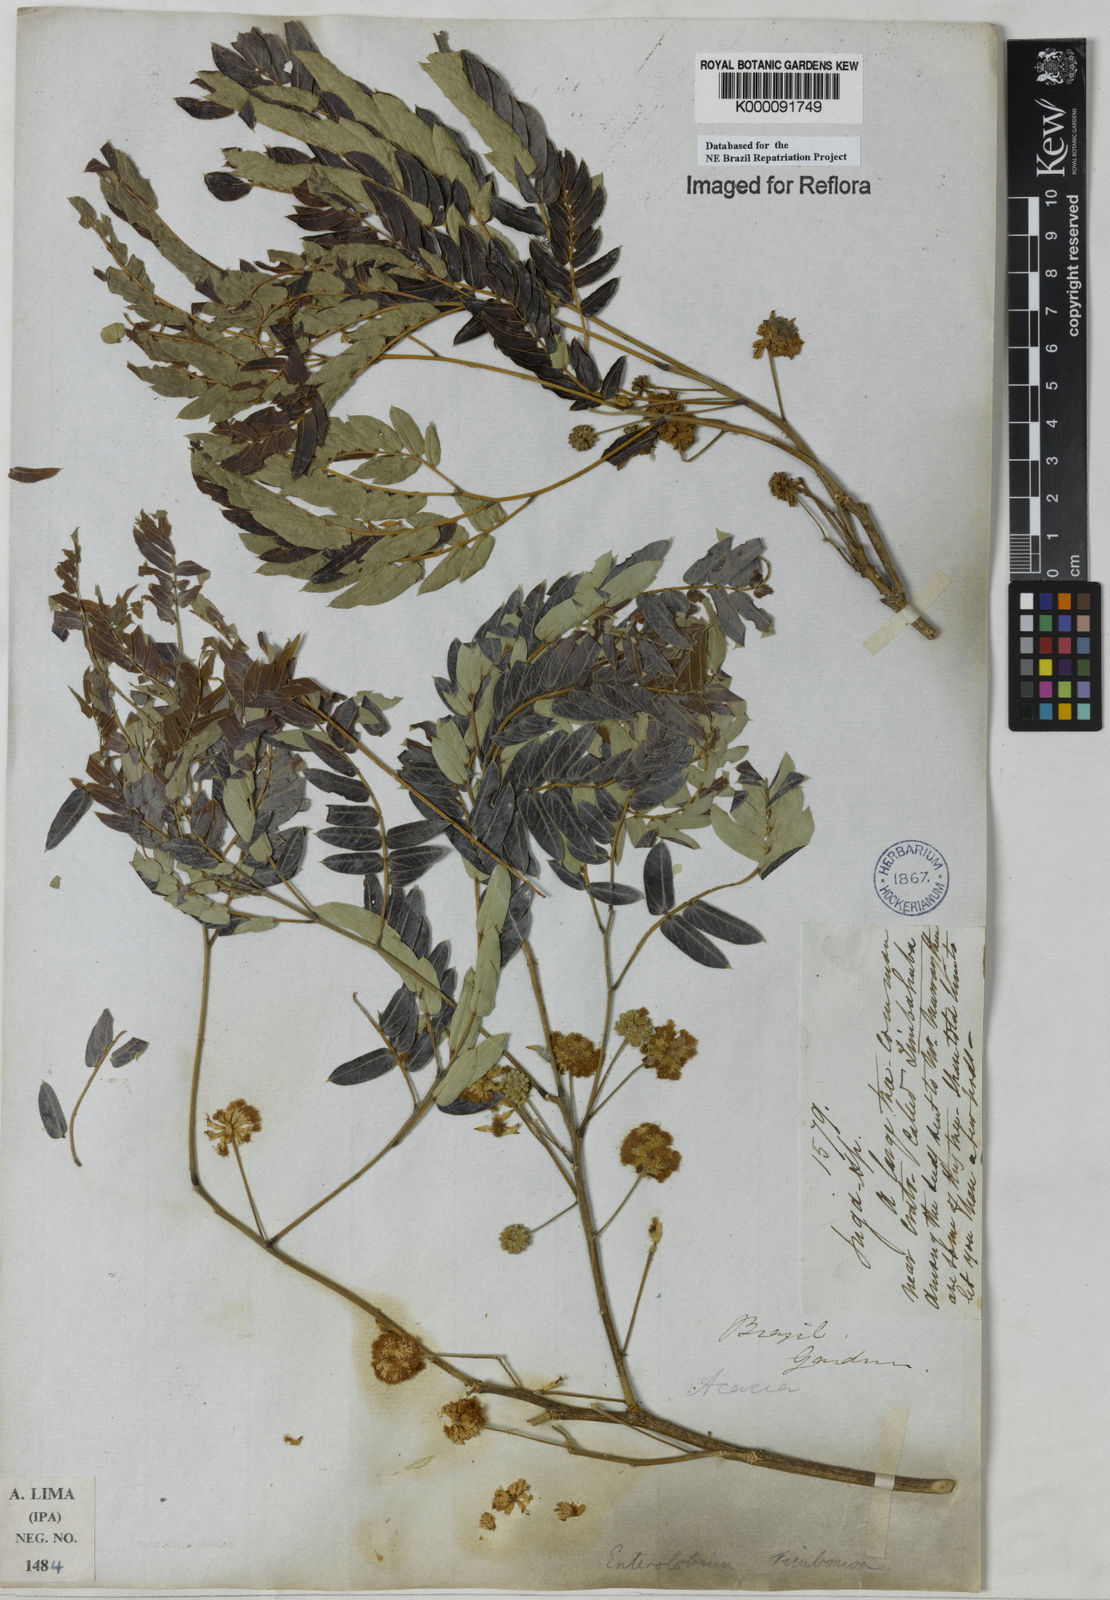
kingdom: Plantae
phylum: Tracheophyta
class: Magnoliopsida
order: Fabales
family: Fabaceae
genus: Enterolobium
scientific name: Enterolobium timbouva
